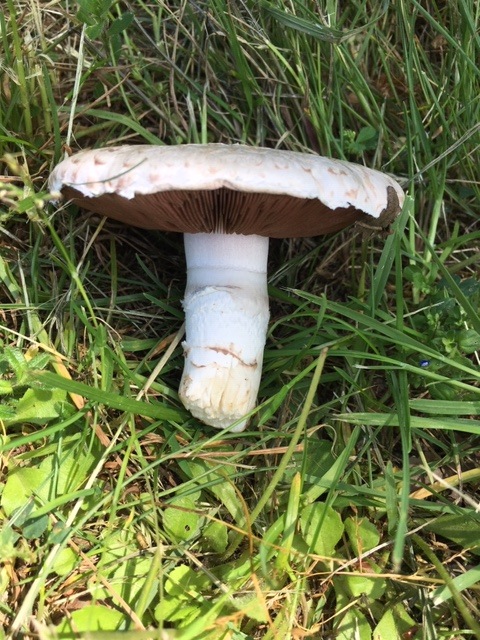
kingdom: Fungi
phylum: Basidiomycota
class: Agaricomycetes
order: Agaricales
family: Agaricaceae
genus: Agaricus
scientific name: Agaricus campestris
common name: mark-champignon
